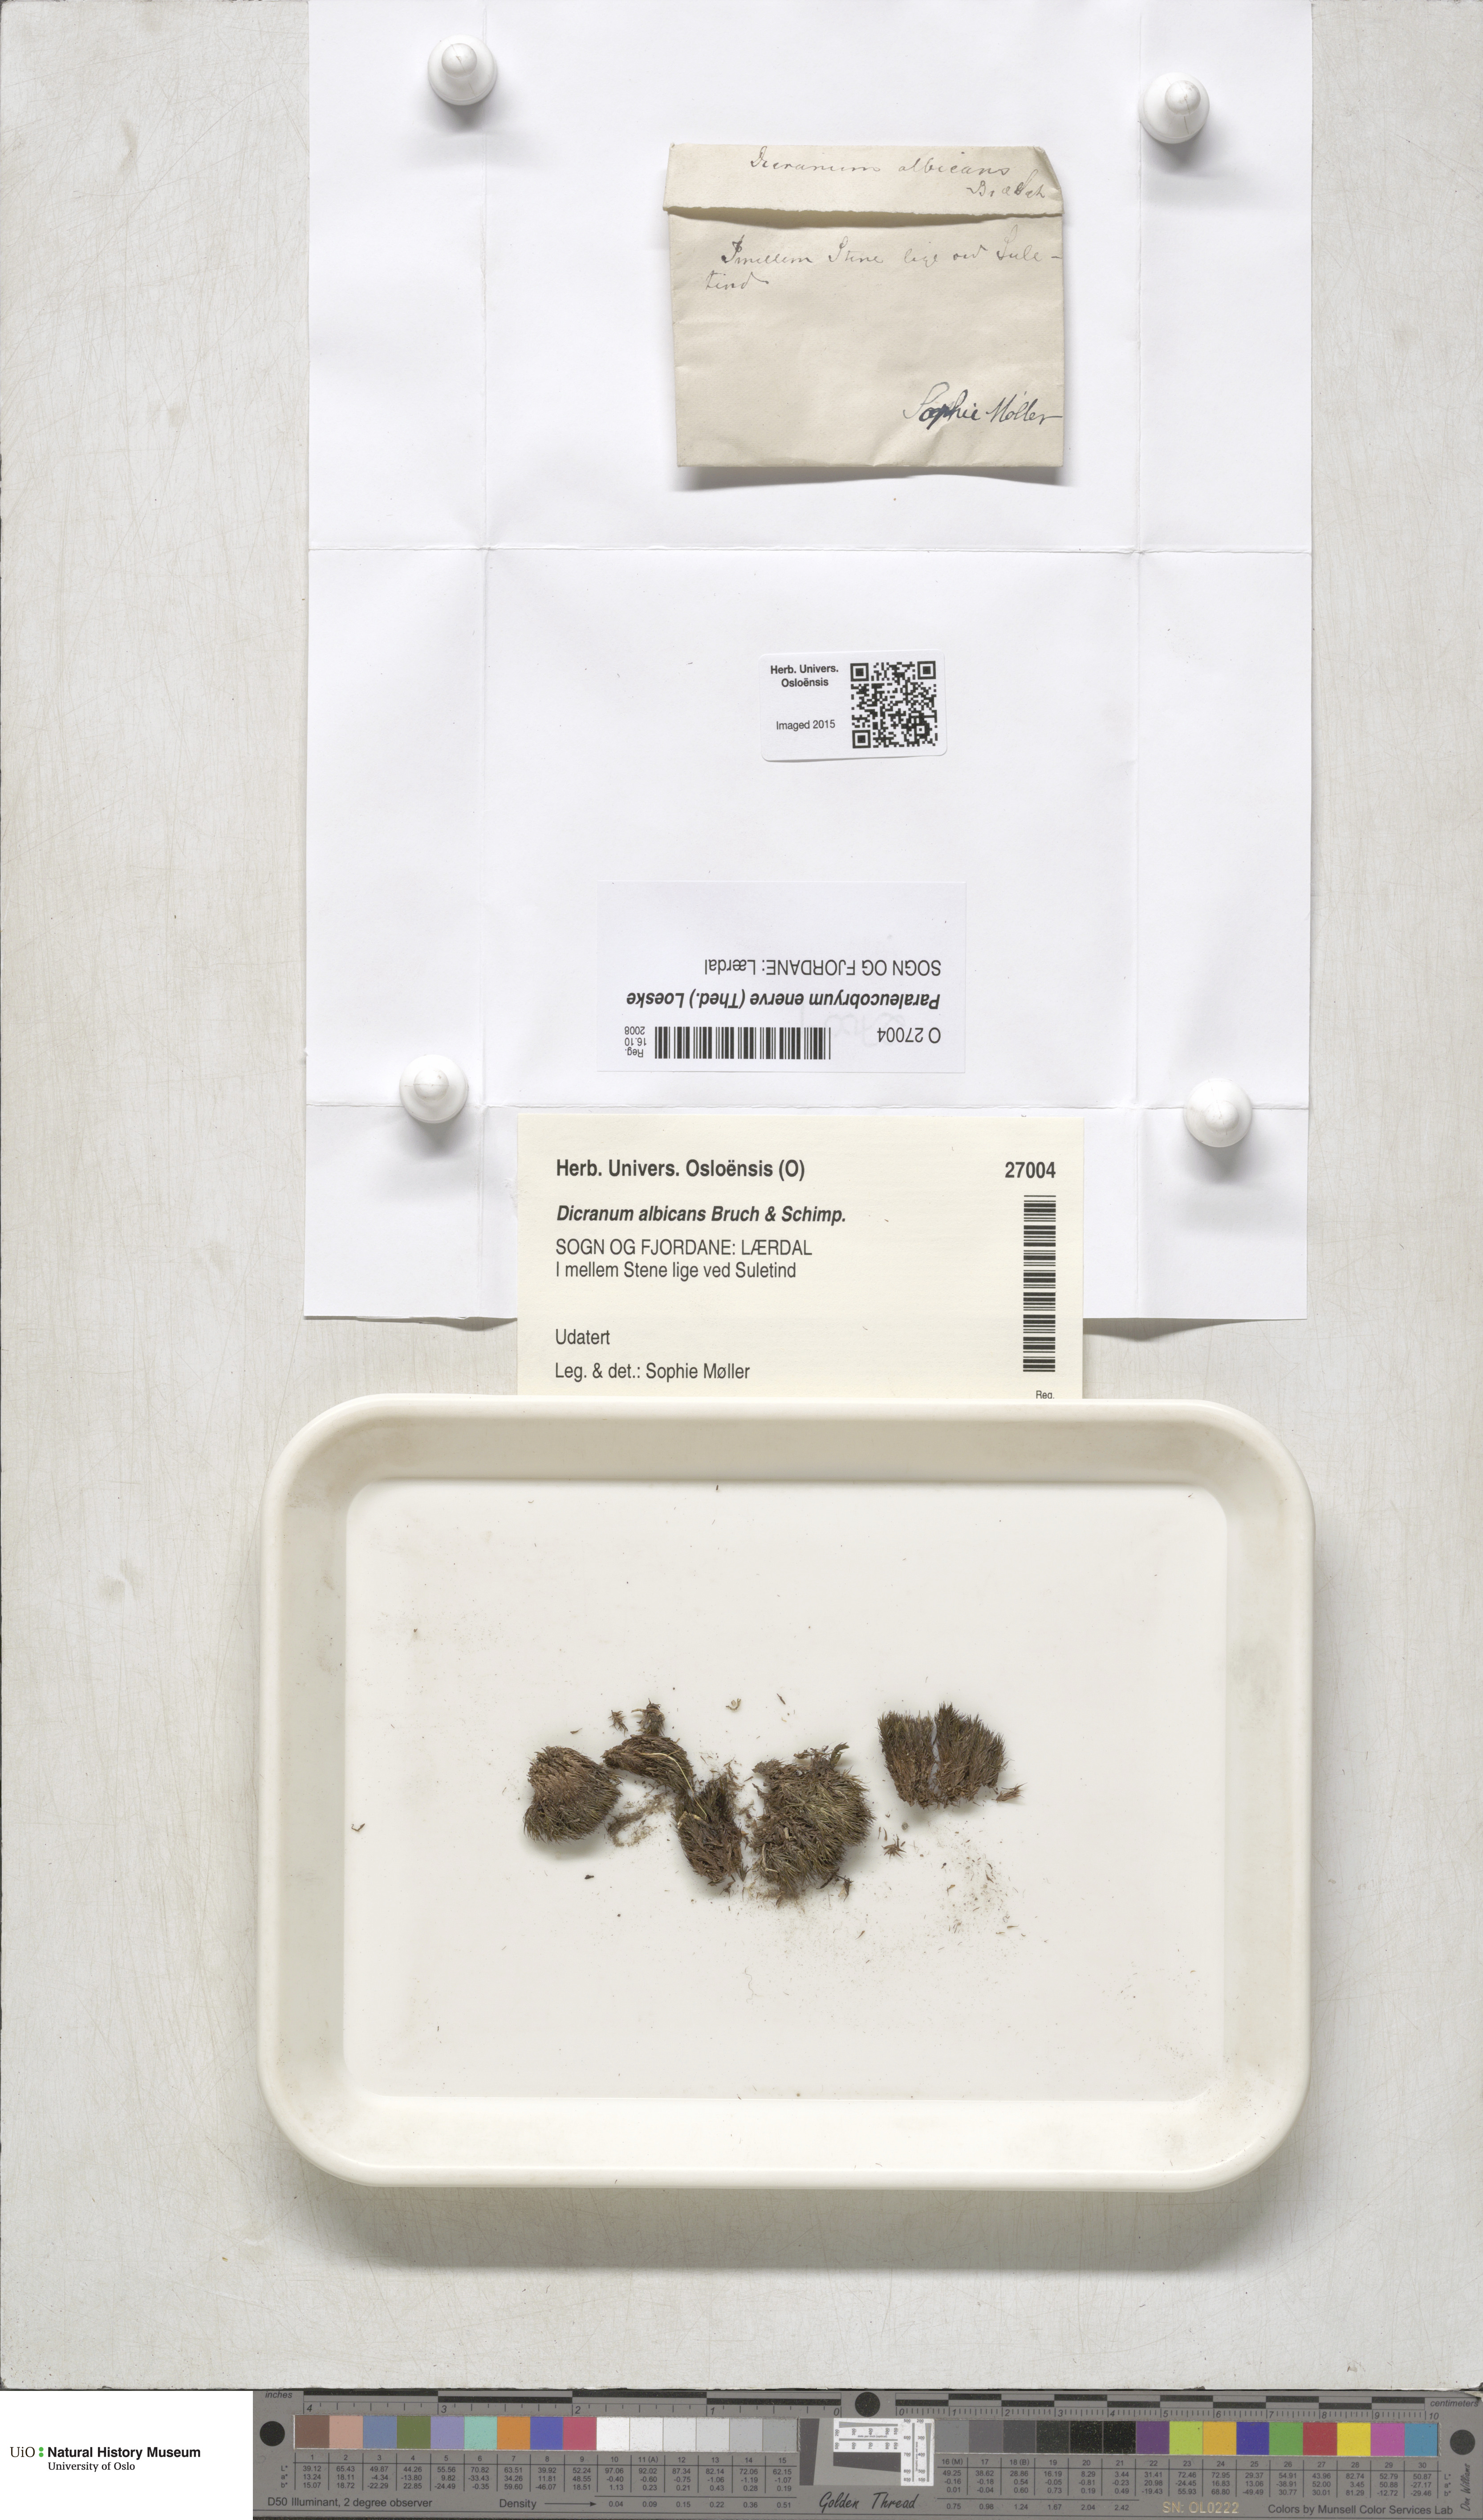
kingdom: Plantae
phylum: Bryophyta
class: Bryopsida
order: Dicranales
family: Dicranaceae
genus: Paraleucobryum
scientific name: Paraleucobryum enerve
